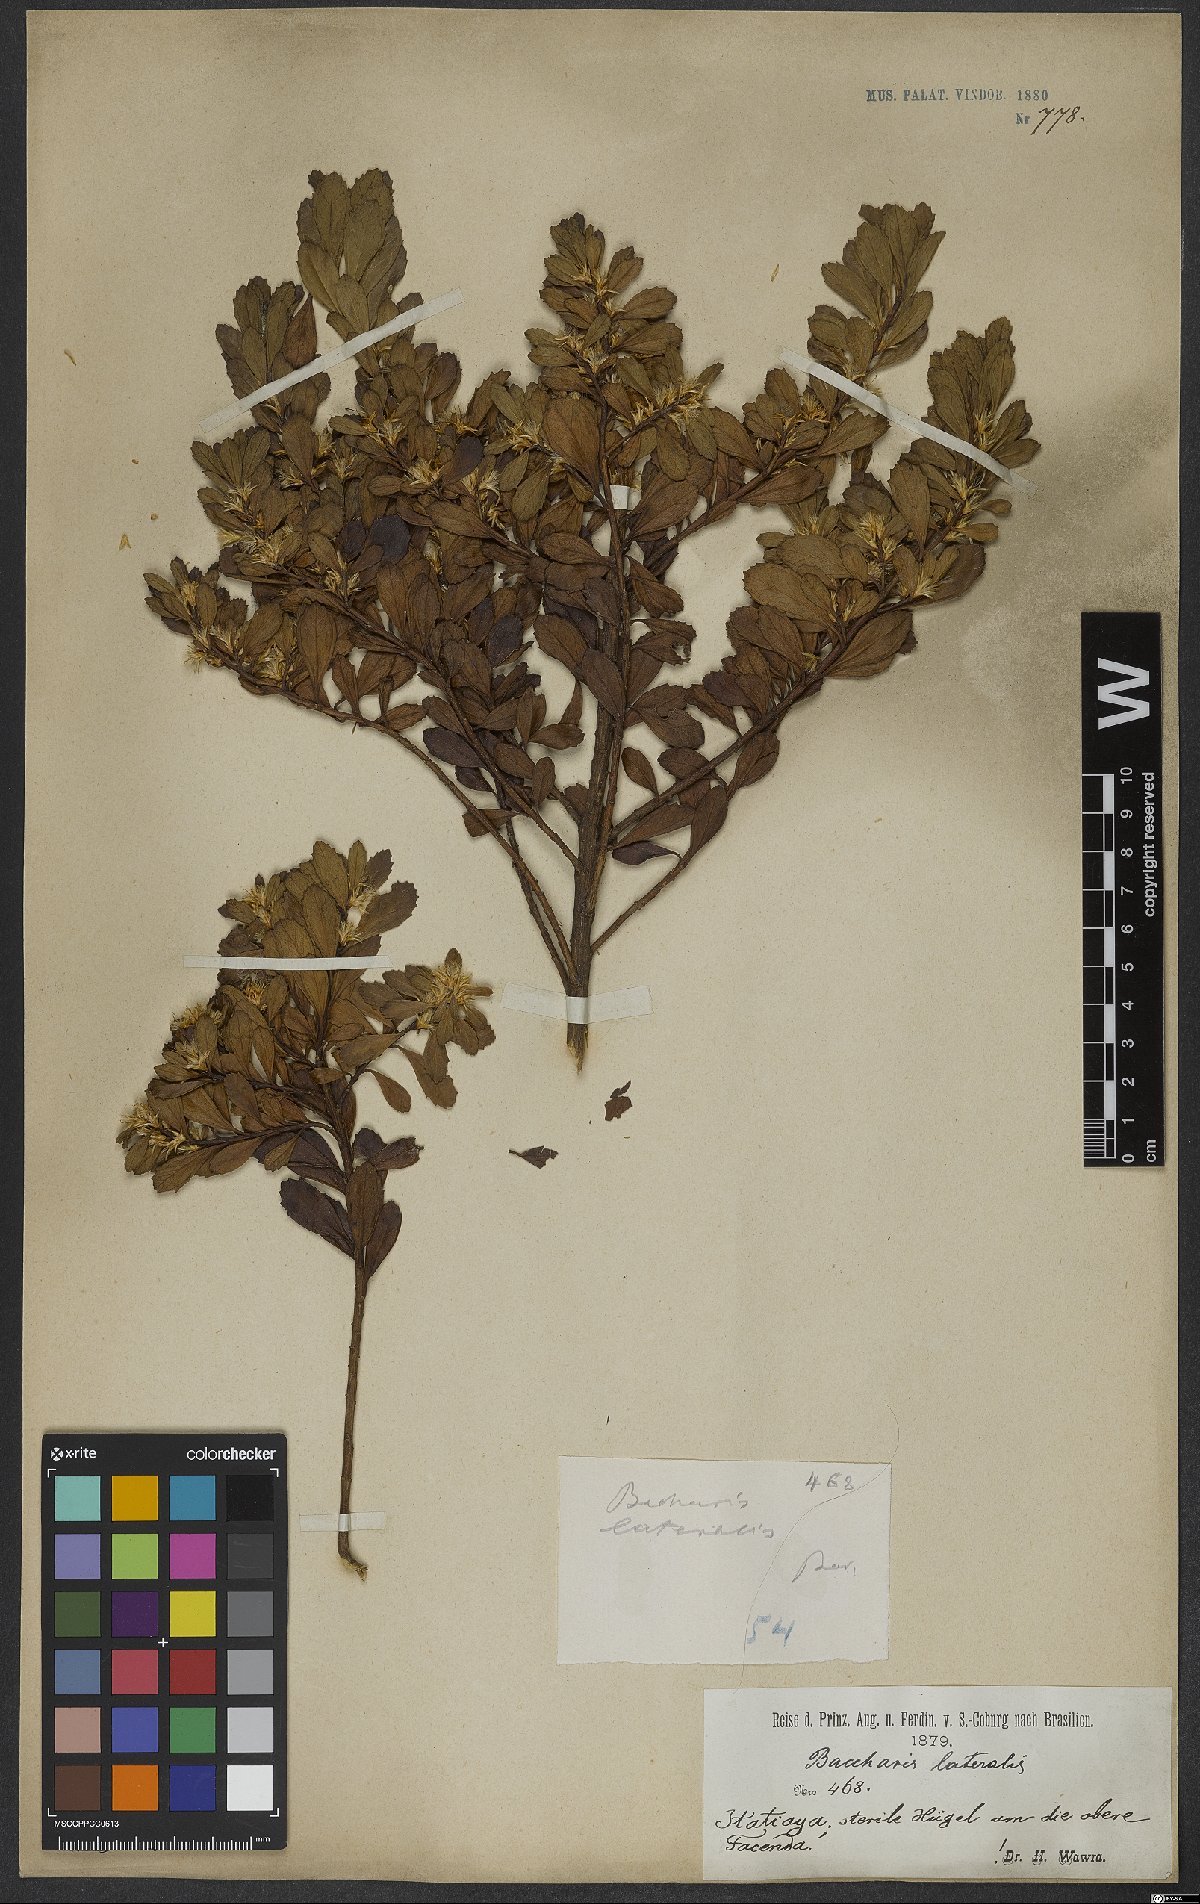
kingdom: Plantae
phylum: Tracheophyta
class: Magnoliopsida
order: Asterales
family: Asteraceae
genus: Baccharis
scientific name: Baccharis lateralis
